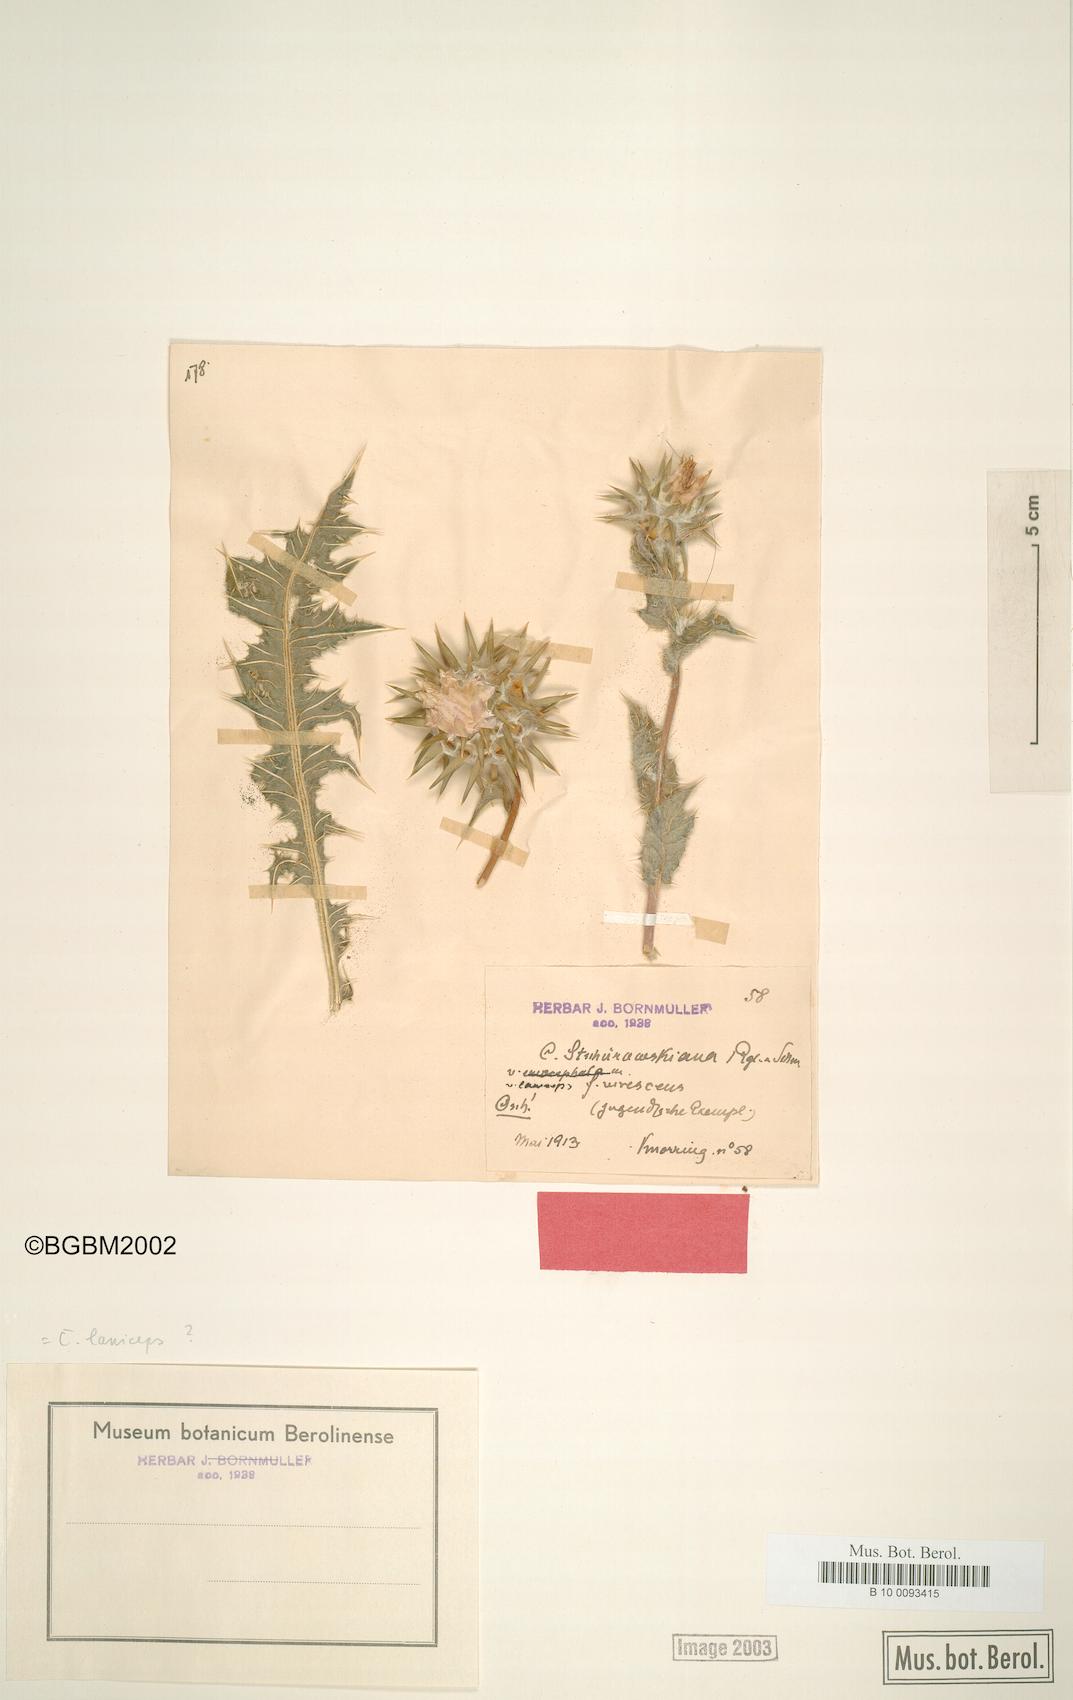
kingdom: Plantae
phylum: Tracheophyta
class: Magnoliopsida
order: Asterales
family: Asteraceae
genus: Cousinia
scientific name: Cousinia laniceps
